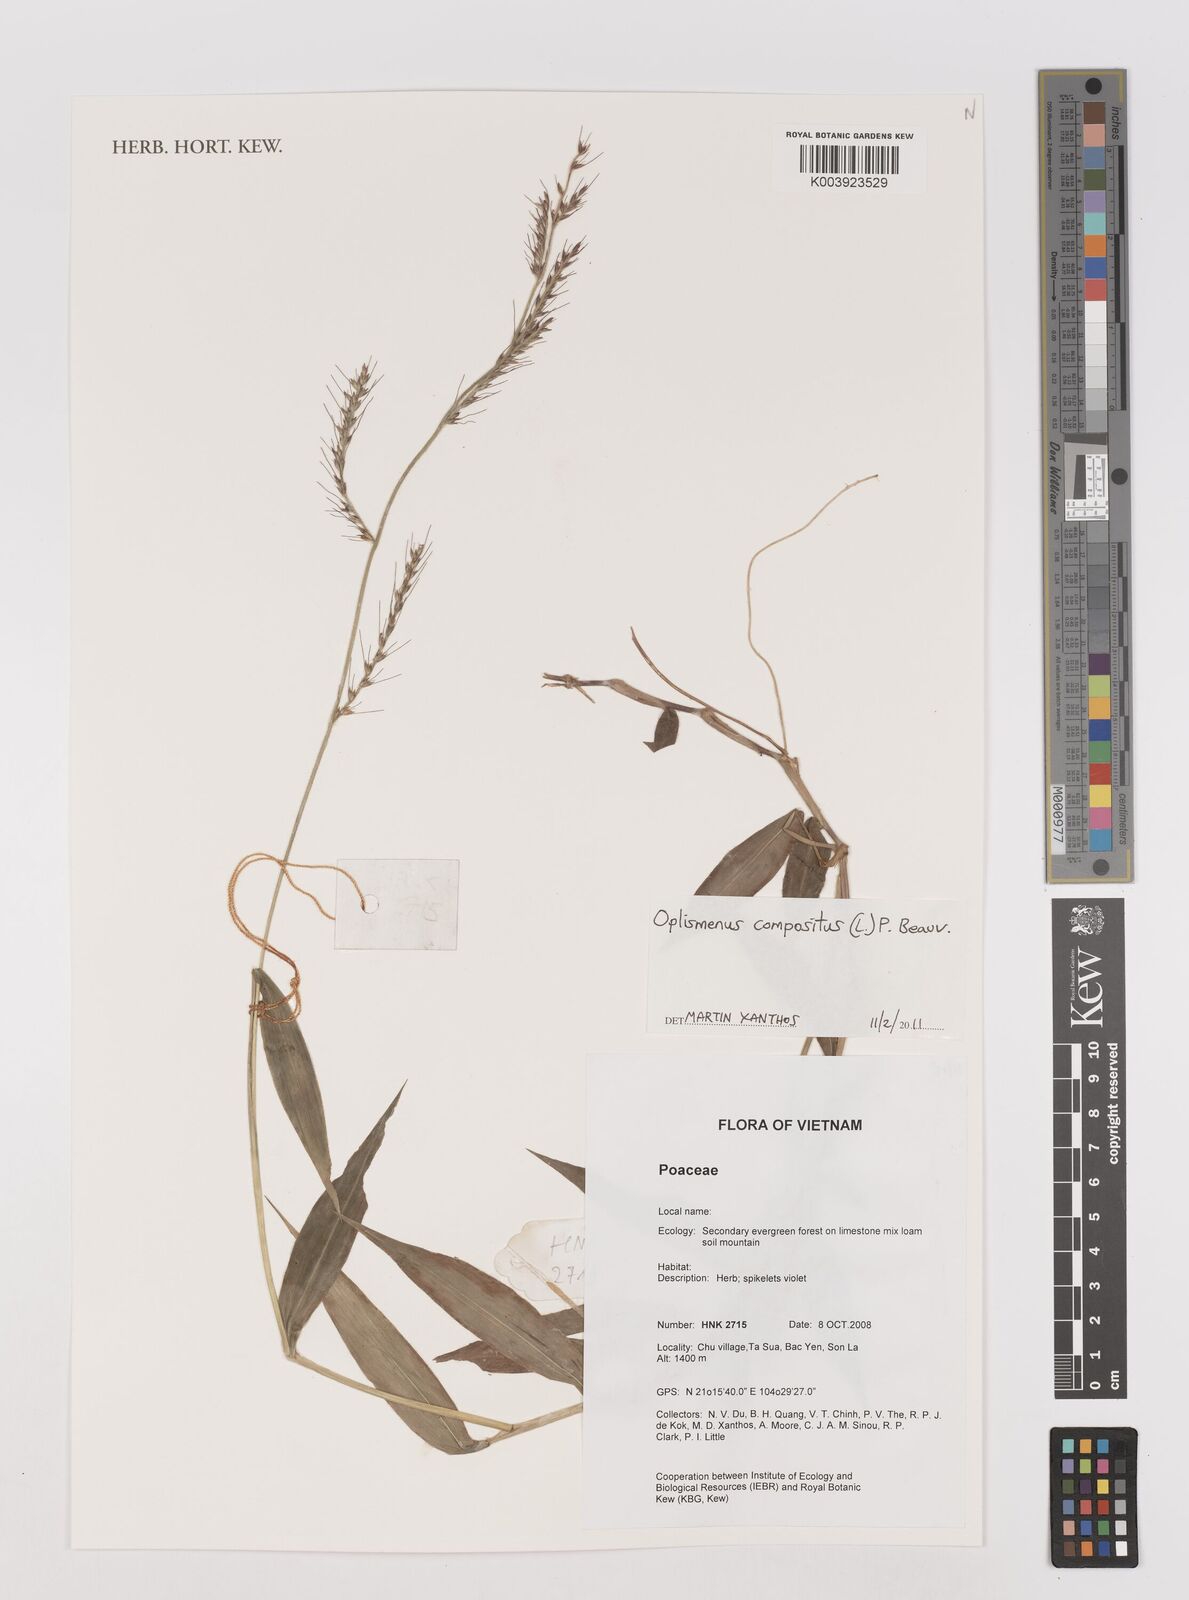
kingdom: Plantae
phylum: Tracheophyta
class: Liliopsida
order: Poales
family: Poaceae
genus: Oplismenus
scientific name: Oplismenus compositus
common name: Running mountain grass
